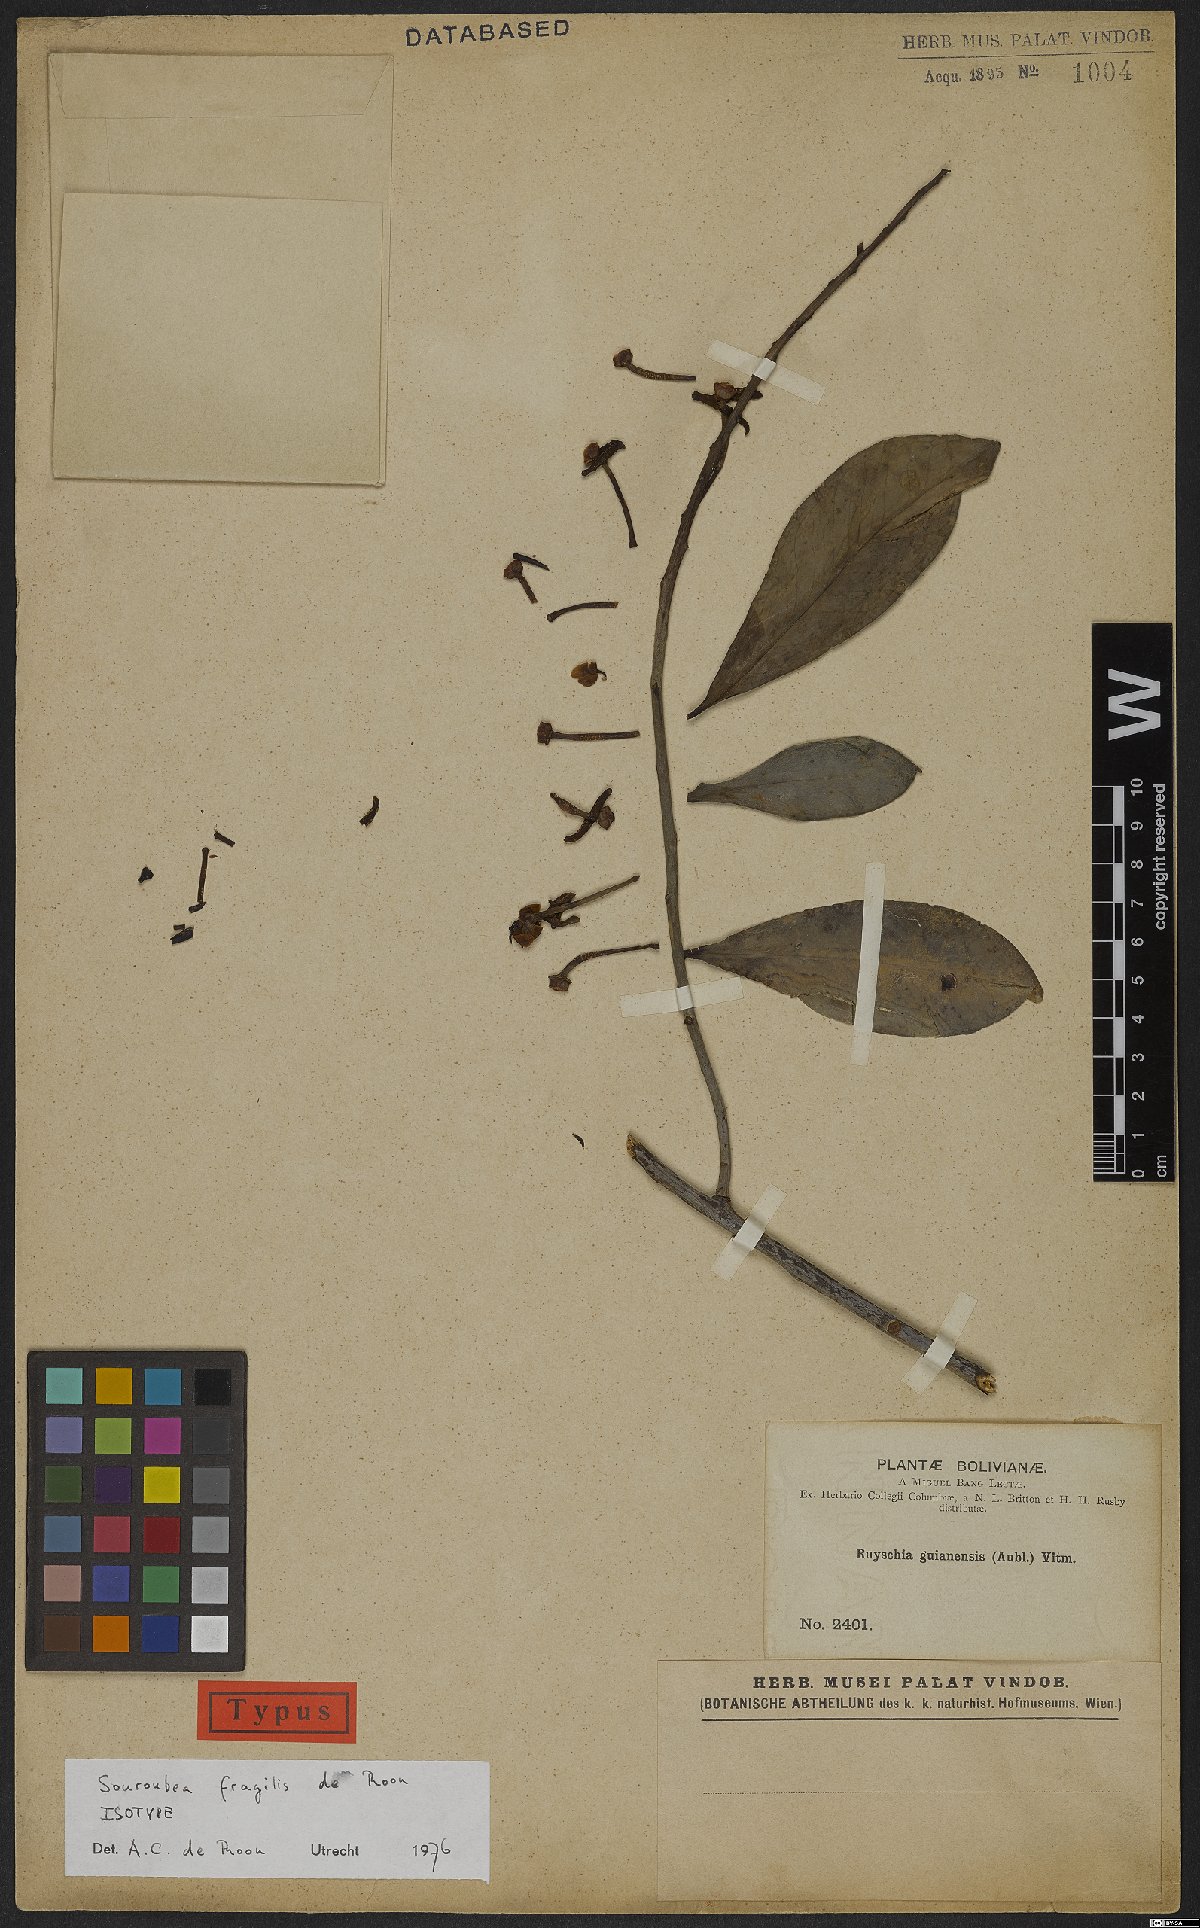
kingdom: Plantae
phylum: Tracheophyta
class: Magnoliopsida
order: Ericales
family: Marcgraviaceae
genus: Souroubea
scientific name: Souroubea fragilis
